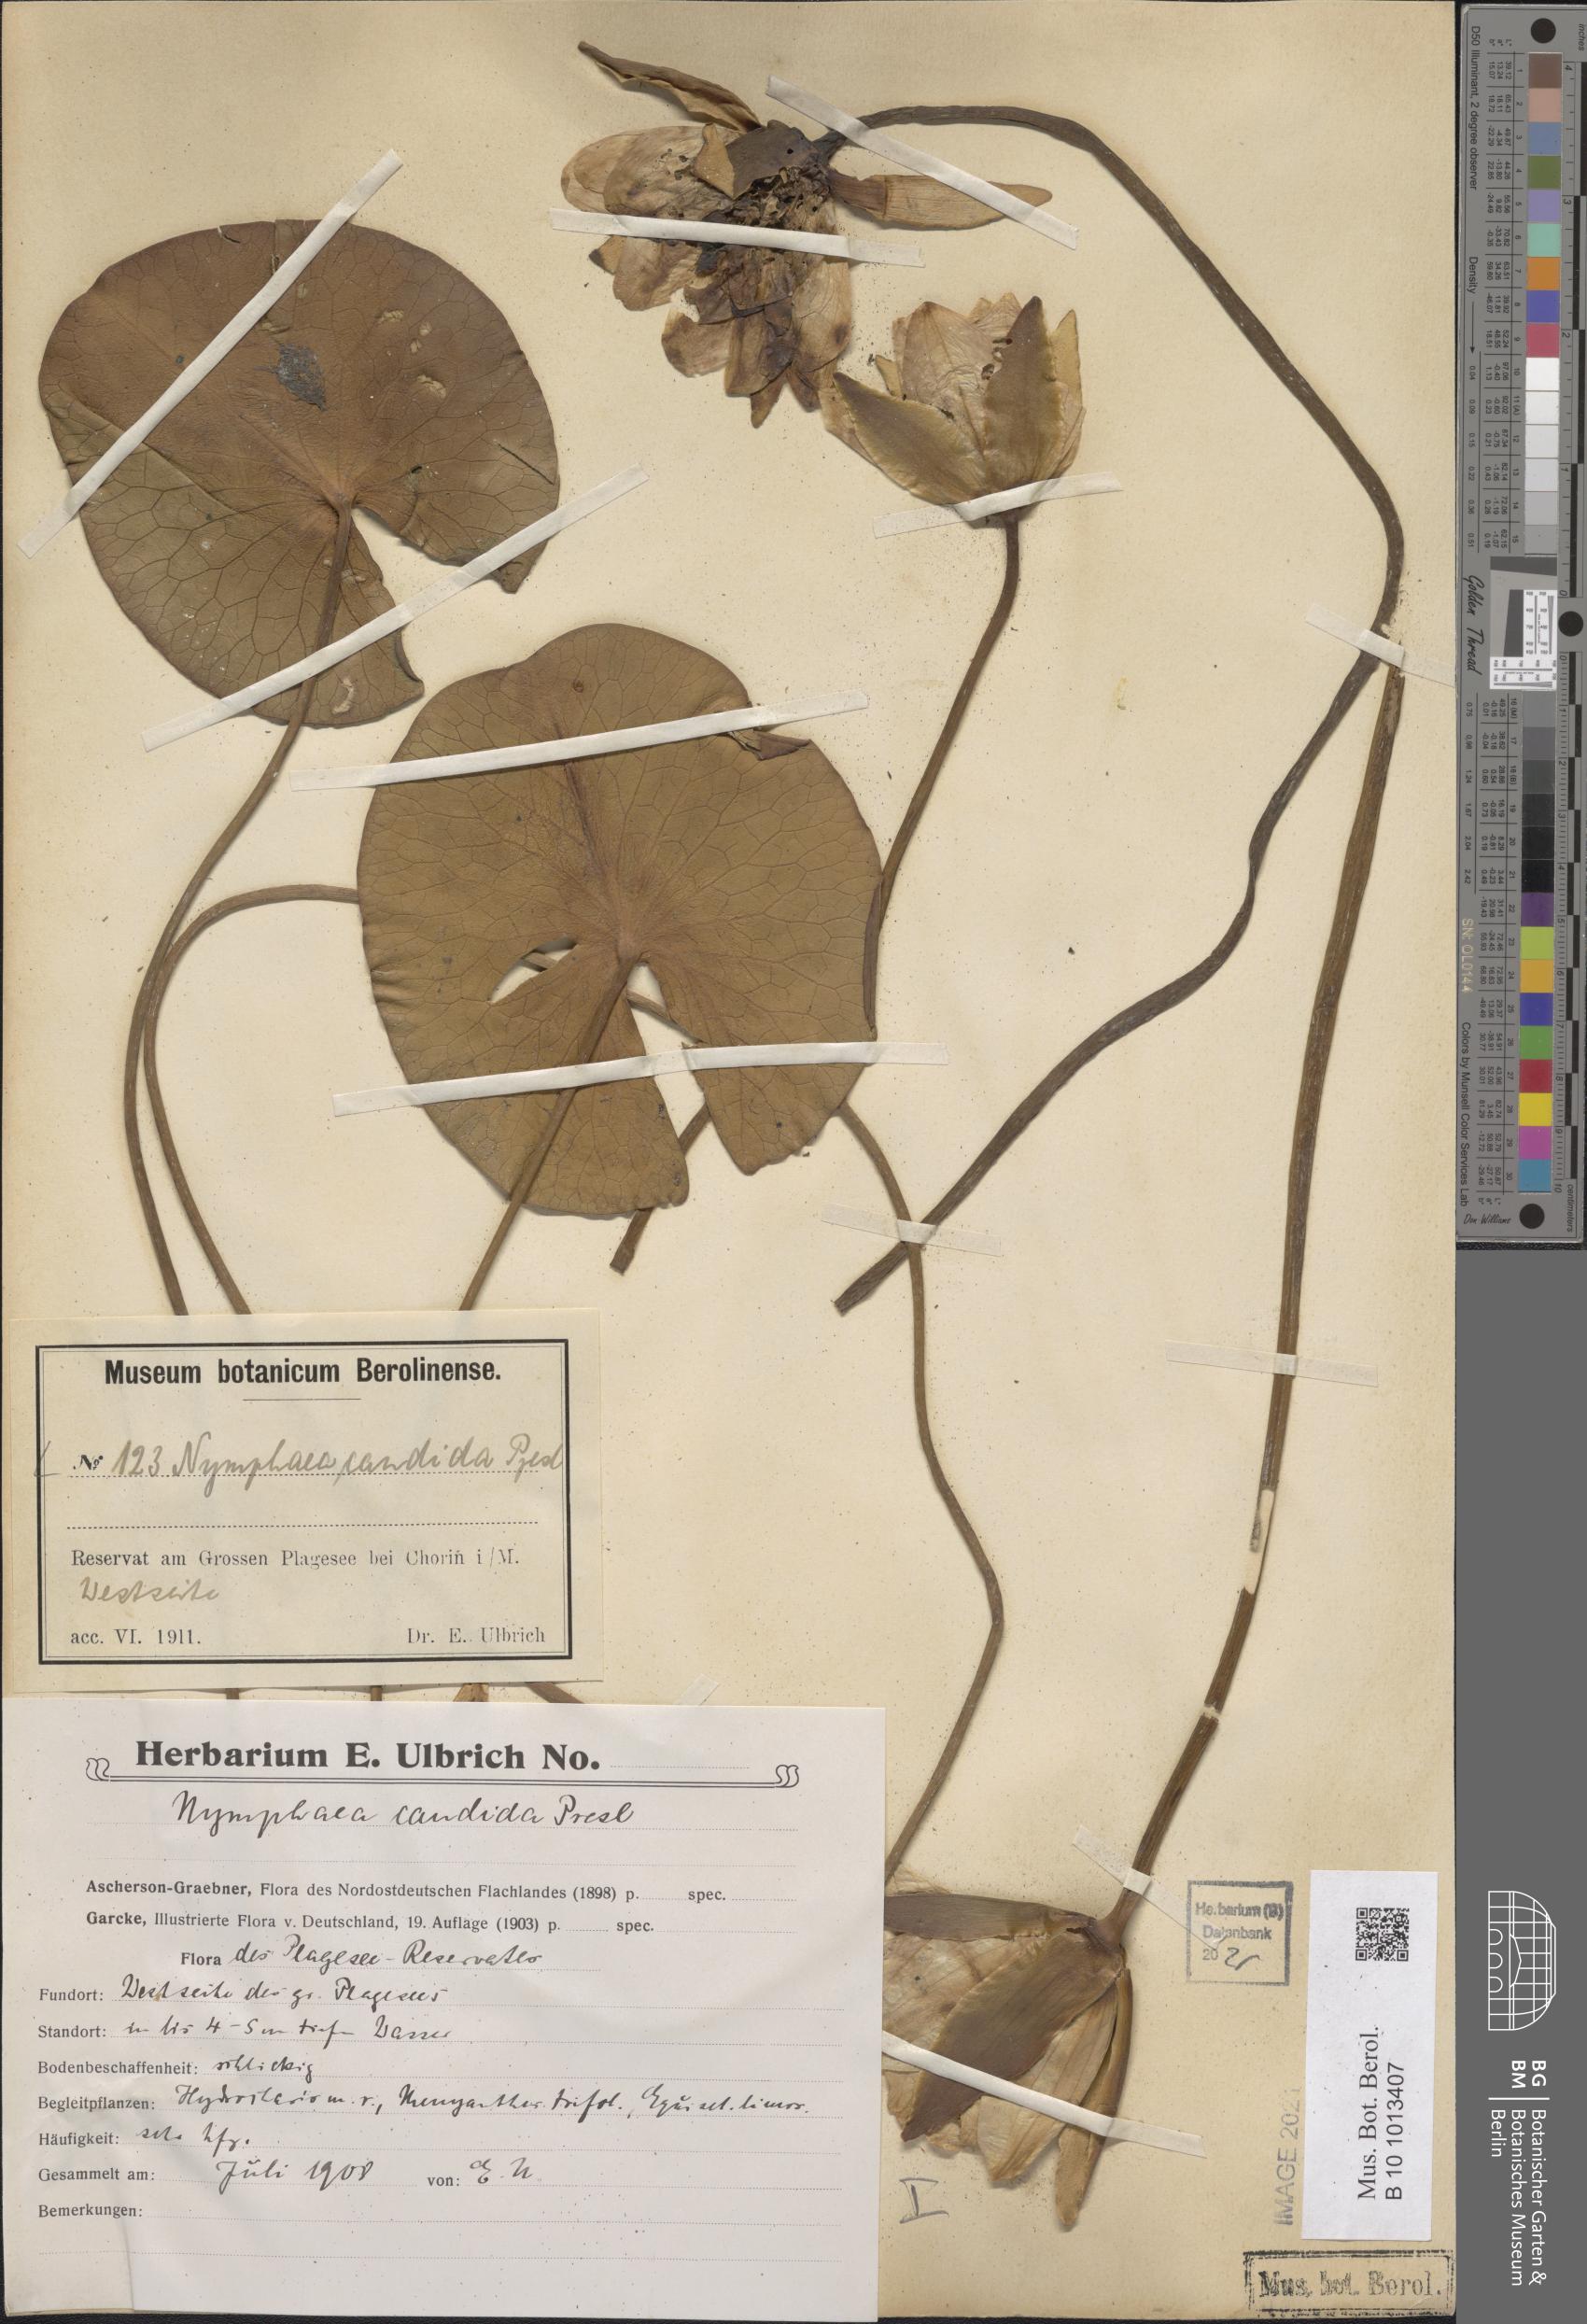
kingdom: Plantae
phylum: Tracheophyta
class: Magnoliopsida
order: Nymphaeales
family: Nymphaeaceae
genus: Nymphaea
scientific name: Nymphaea candida
